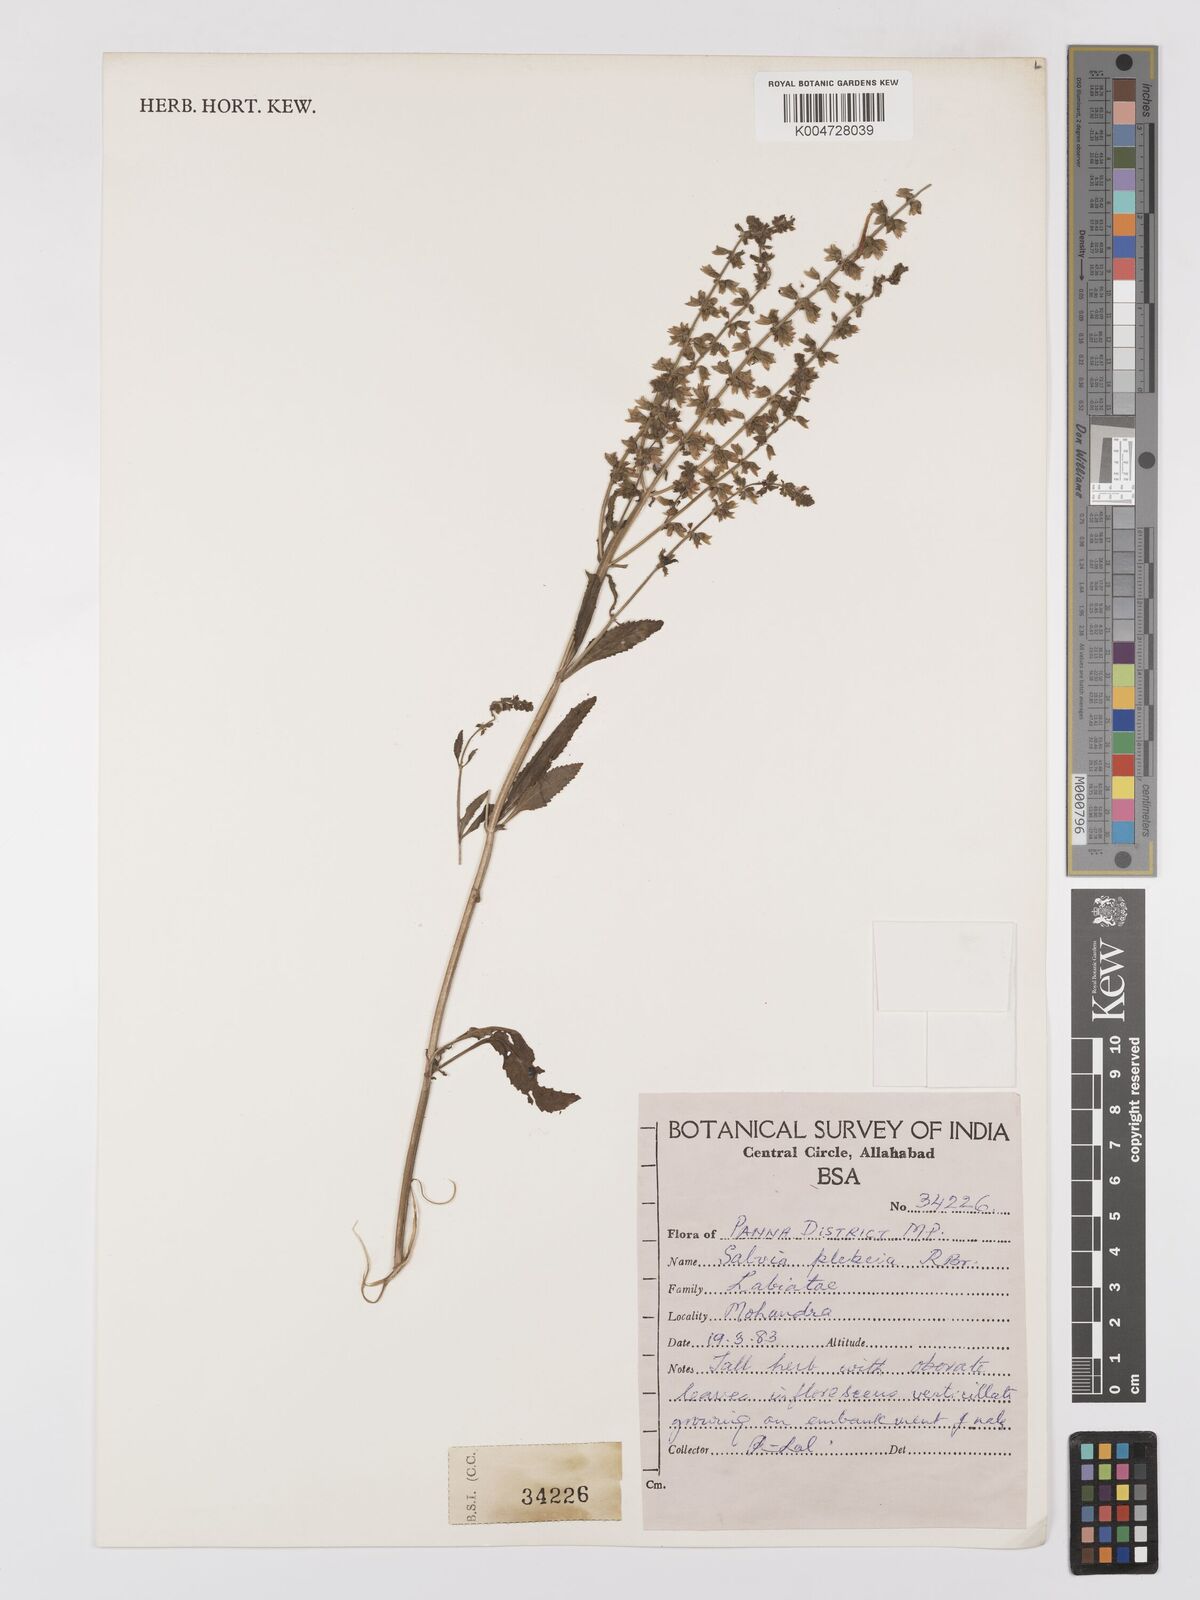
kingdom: Plantae
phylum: Tracheophyta
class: Magnoliopsida
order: Lamiales
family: Lamiaceae
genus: Salvia
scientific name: Salvia plebeia
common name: Australian sage
